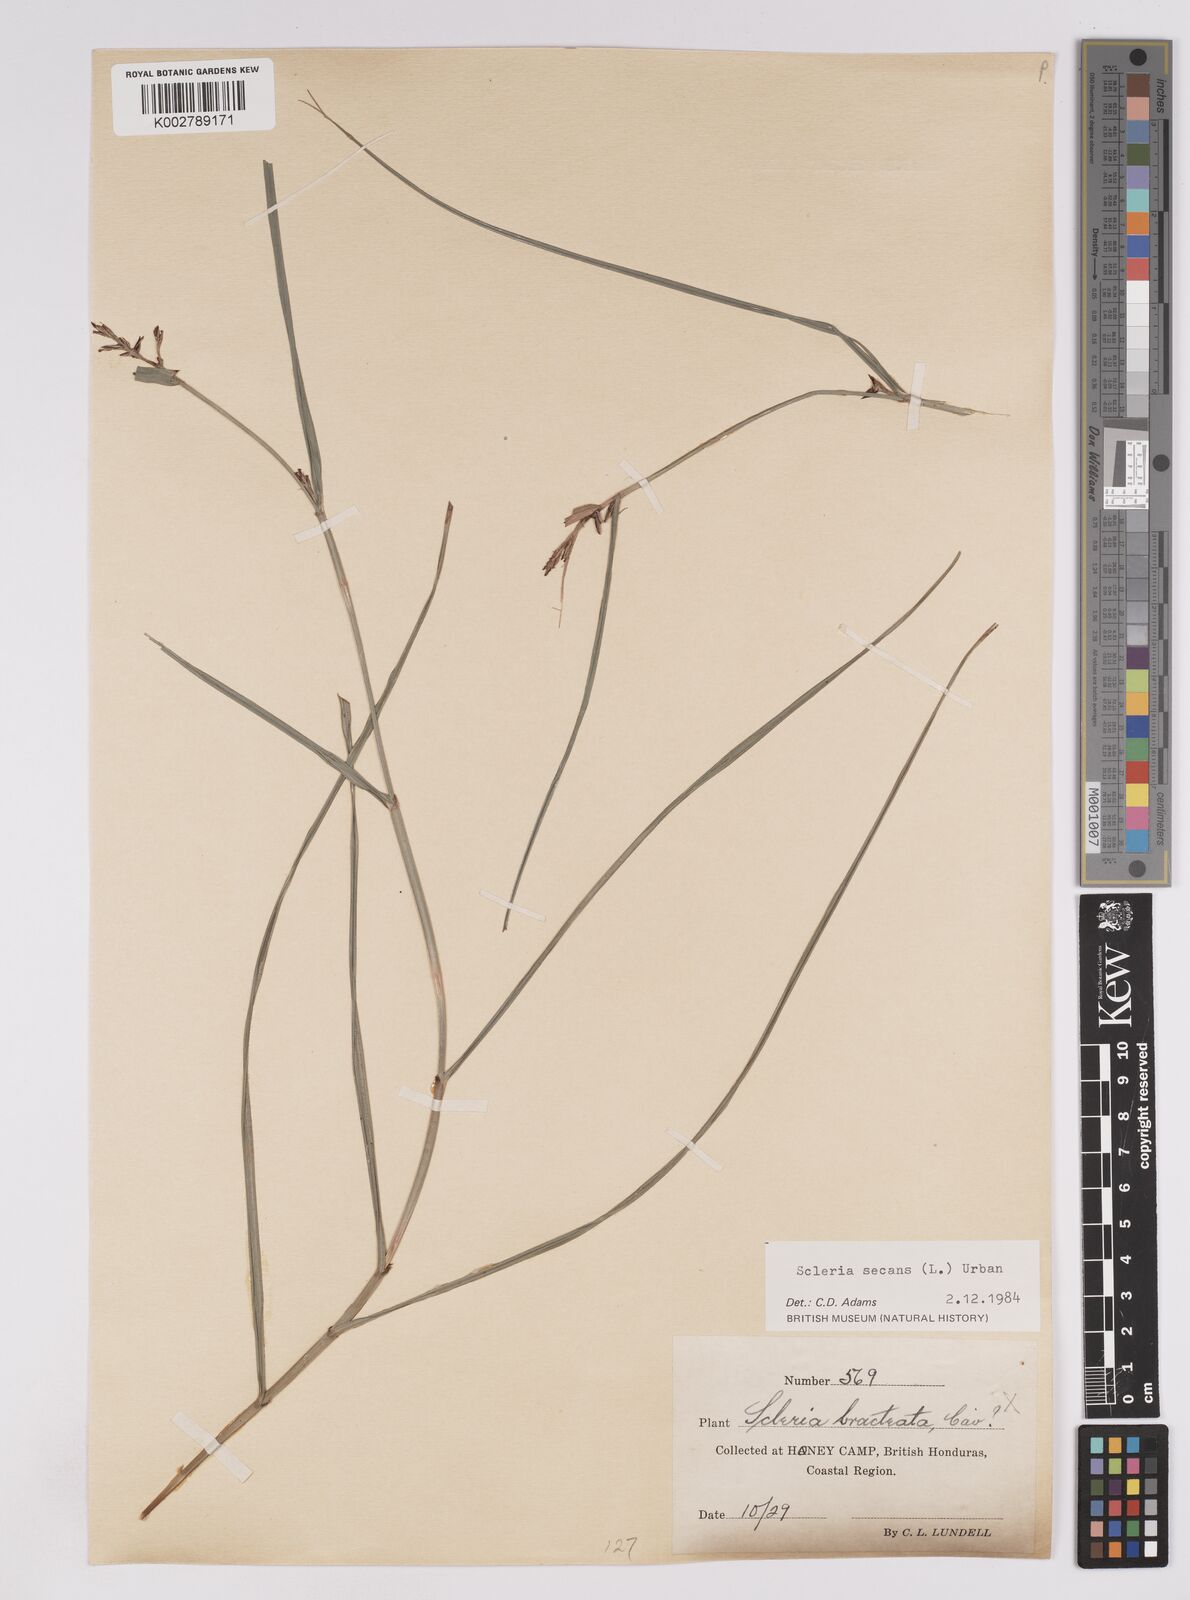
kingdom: Plantae
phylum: Tracheophyta
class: Liliopsida
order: Poales
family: Cyperaceae
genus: Scleria
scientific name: Scleria secans
